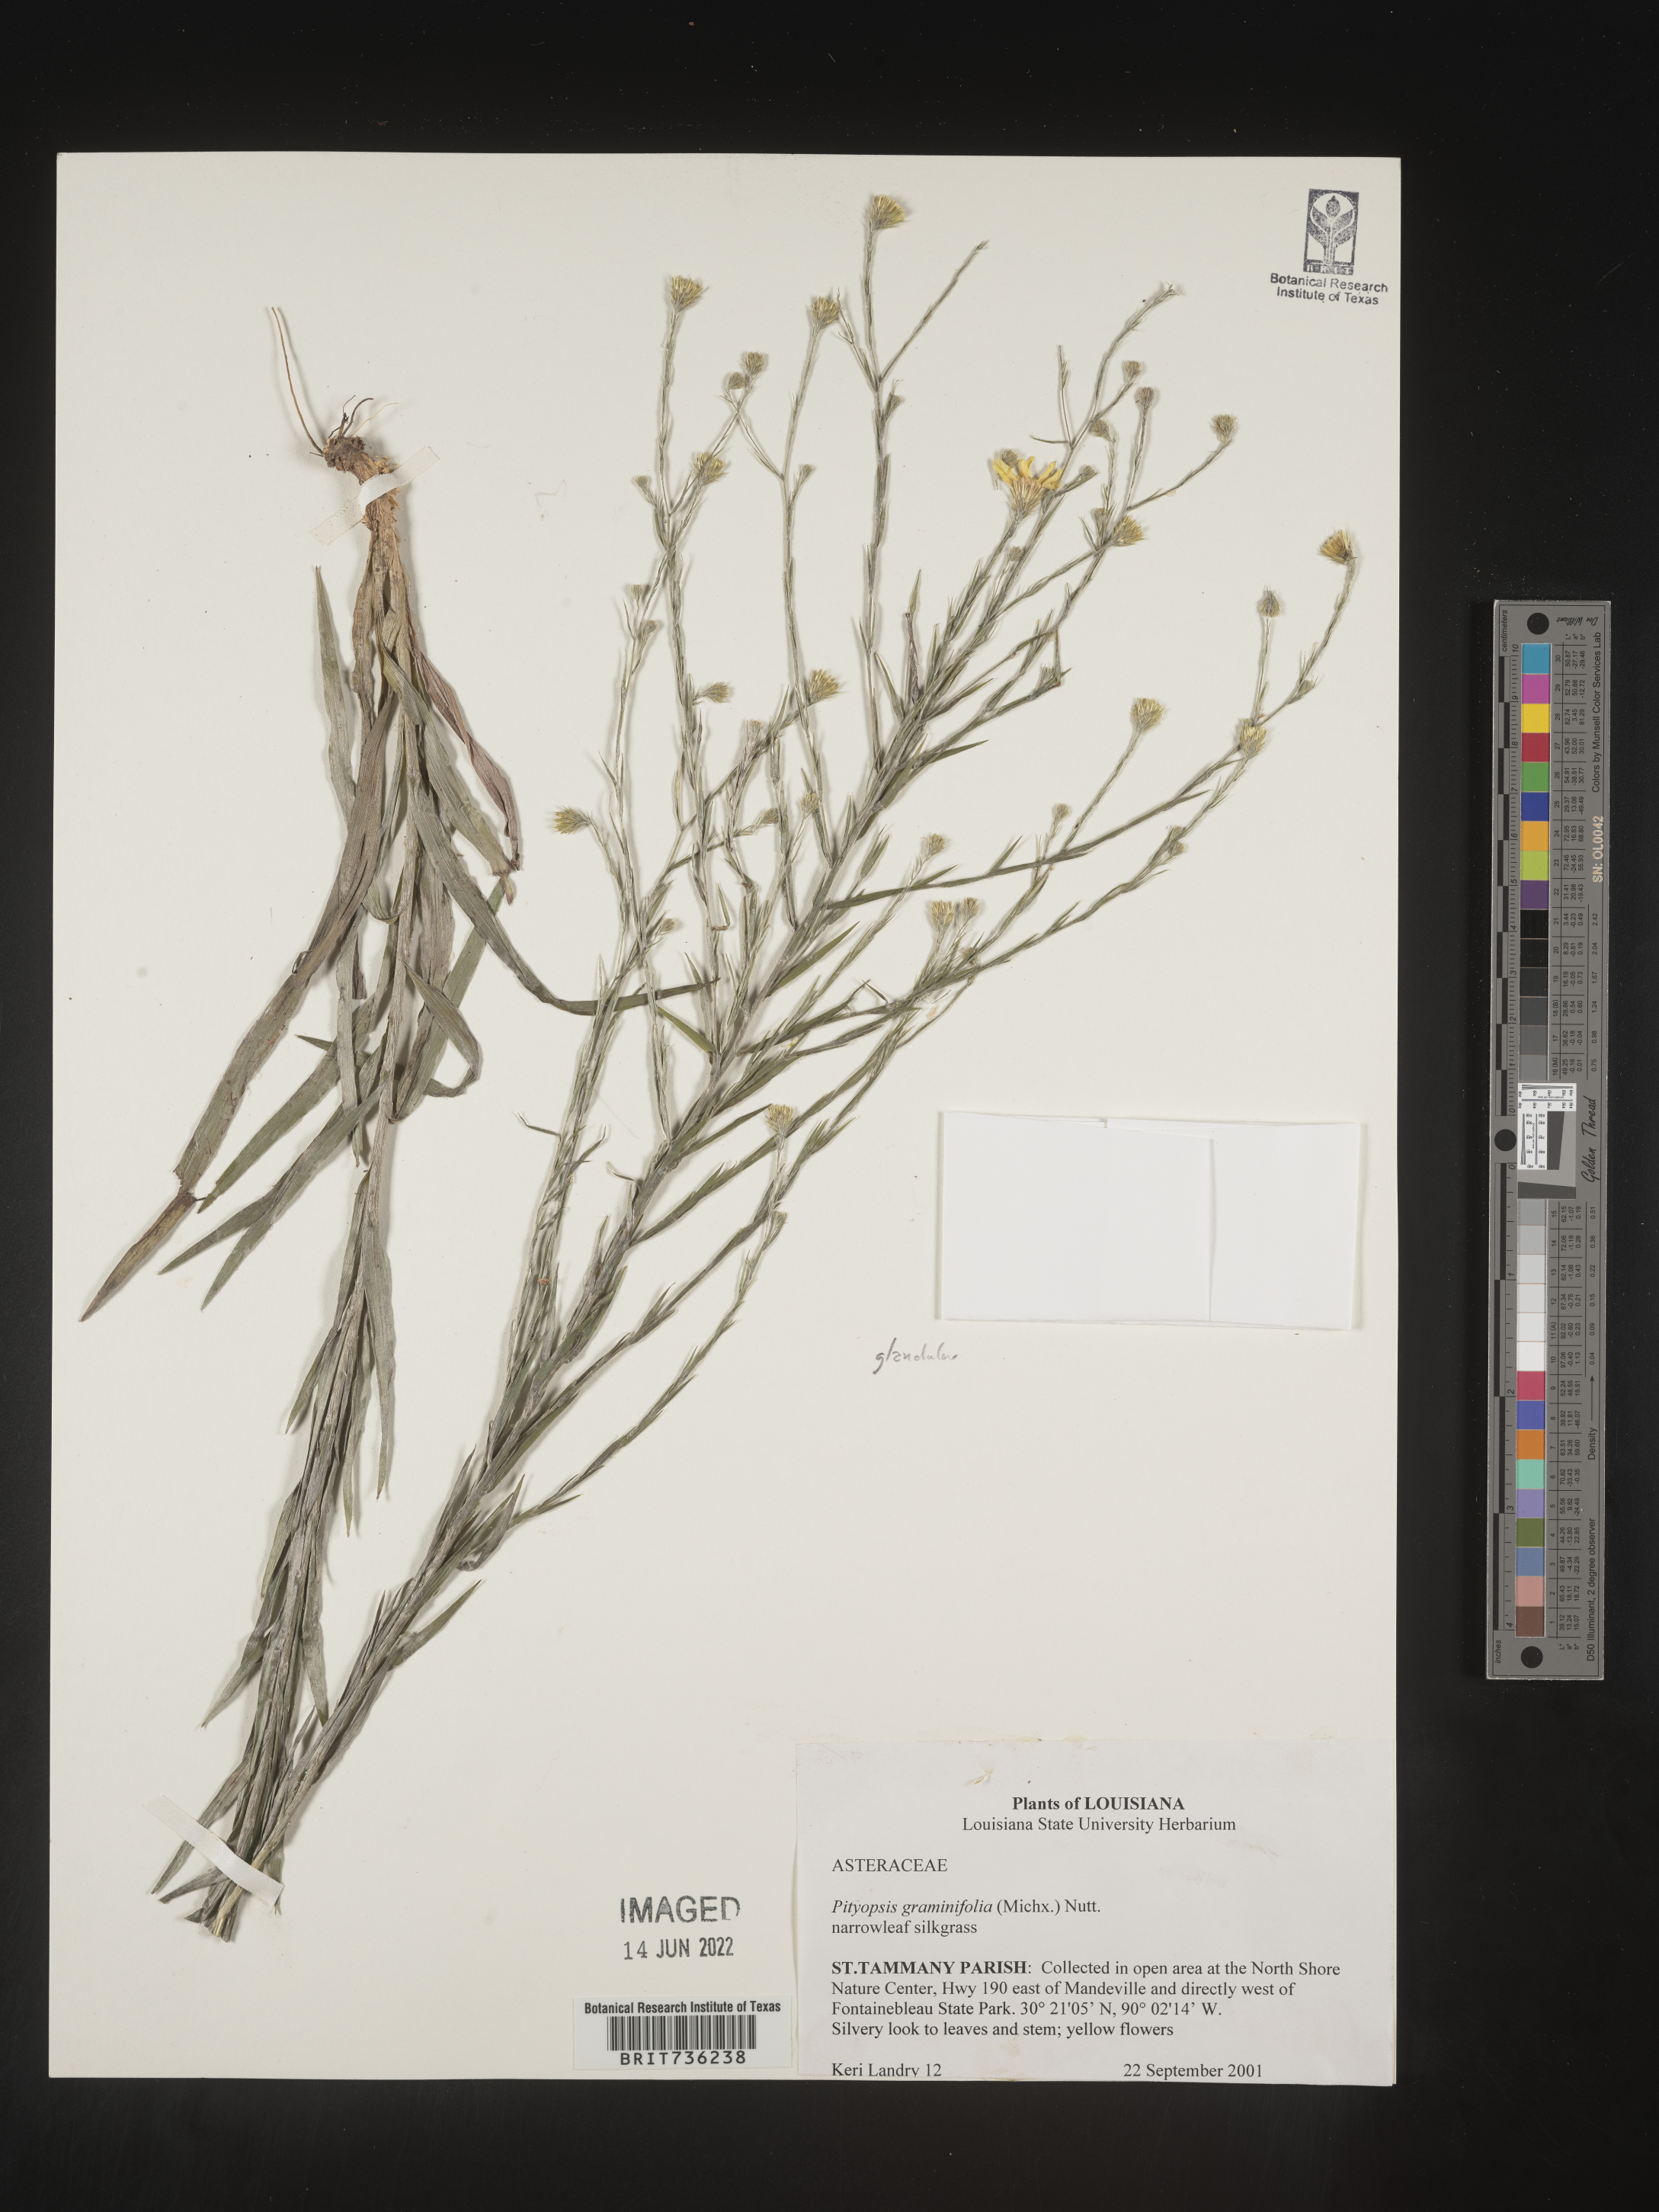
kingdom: Plantae
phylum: Tracheophyta
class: Magnoliopsida
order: Asterales
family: Asteraceae
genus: Pityopsis
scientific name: Pityopsis graminifolia
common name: Grass-leaf golden-aster
